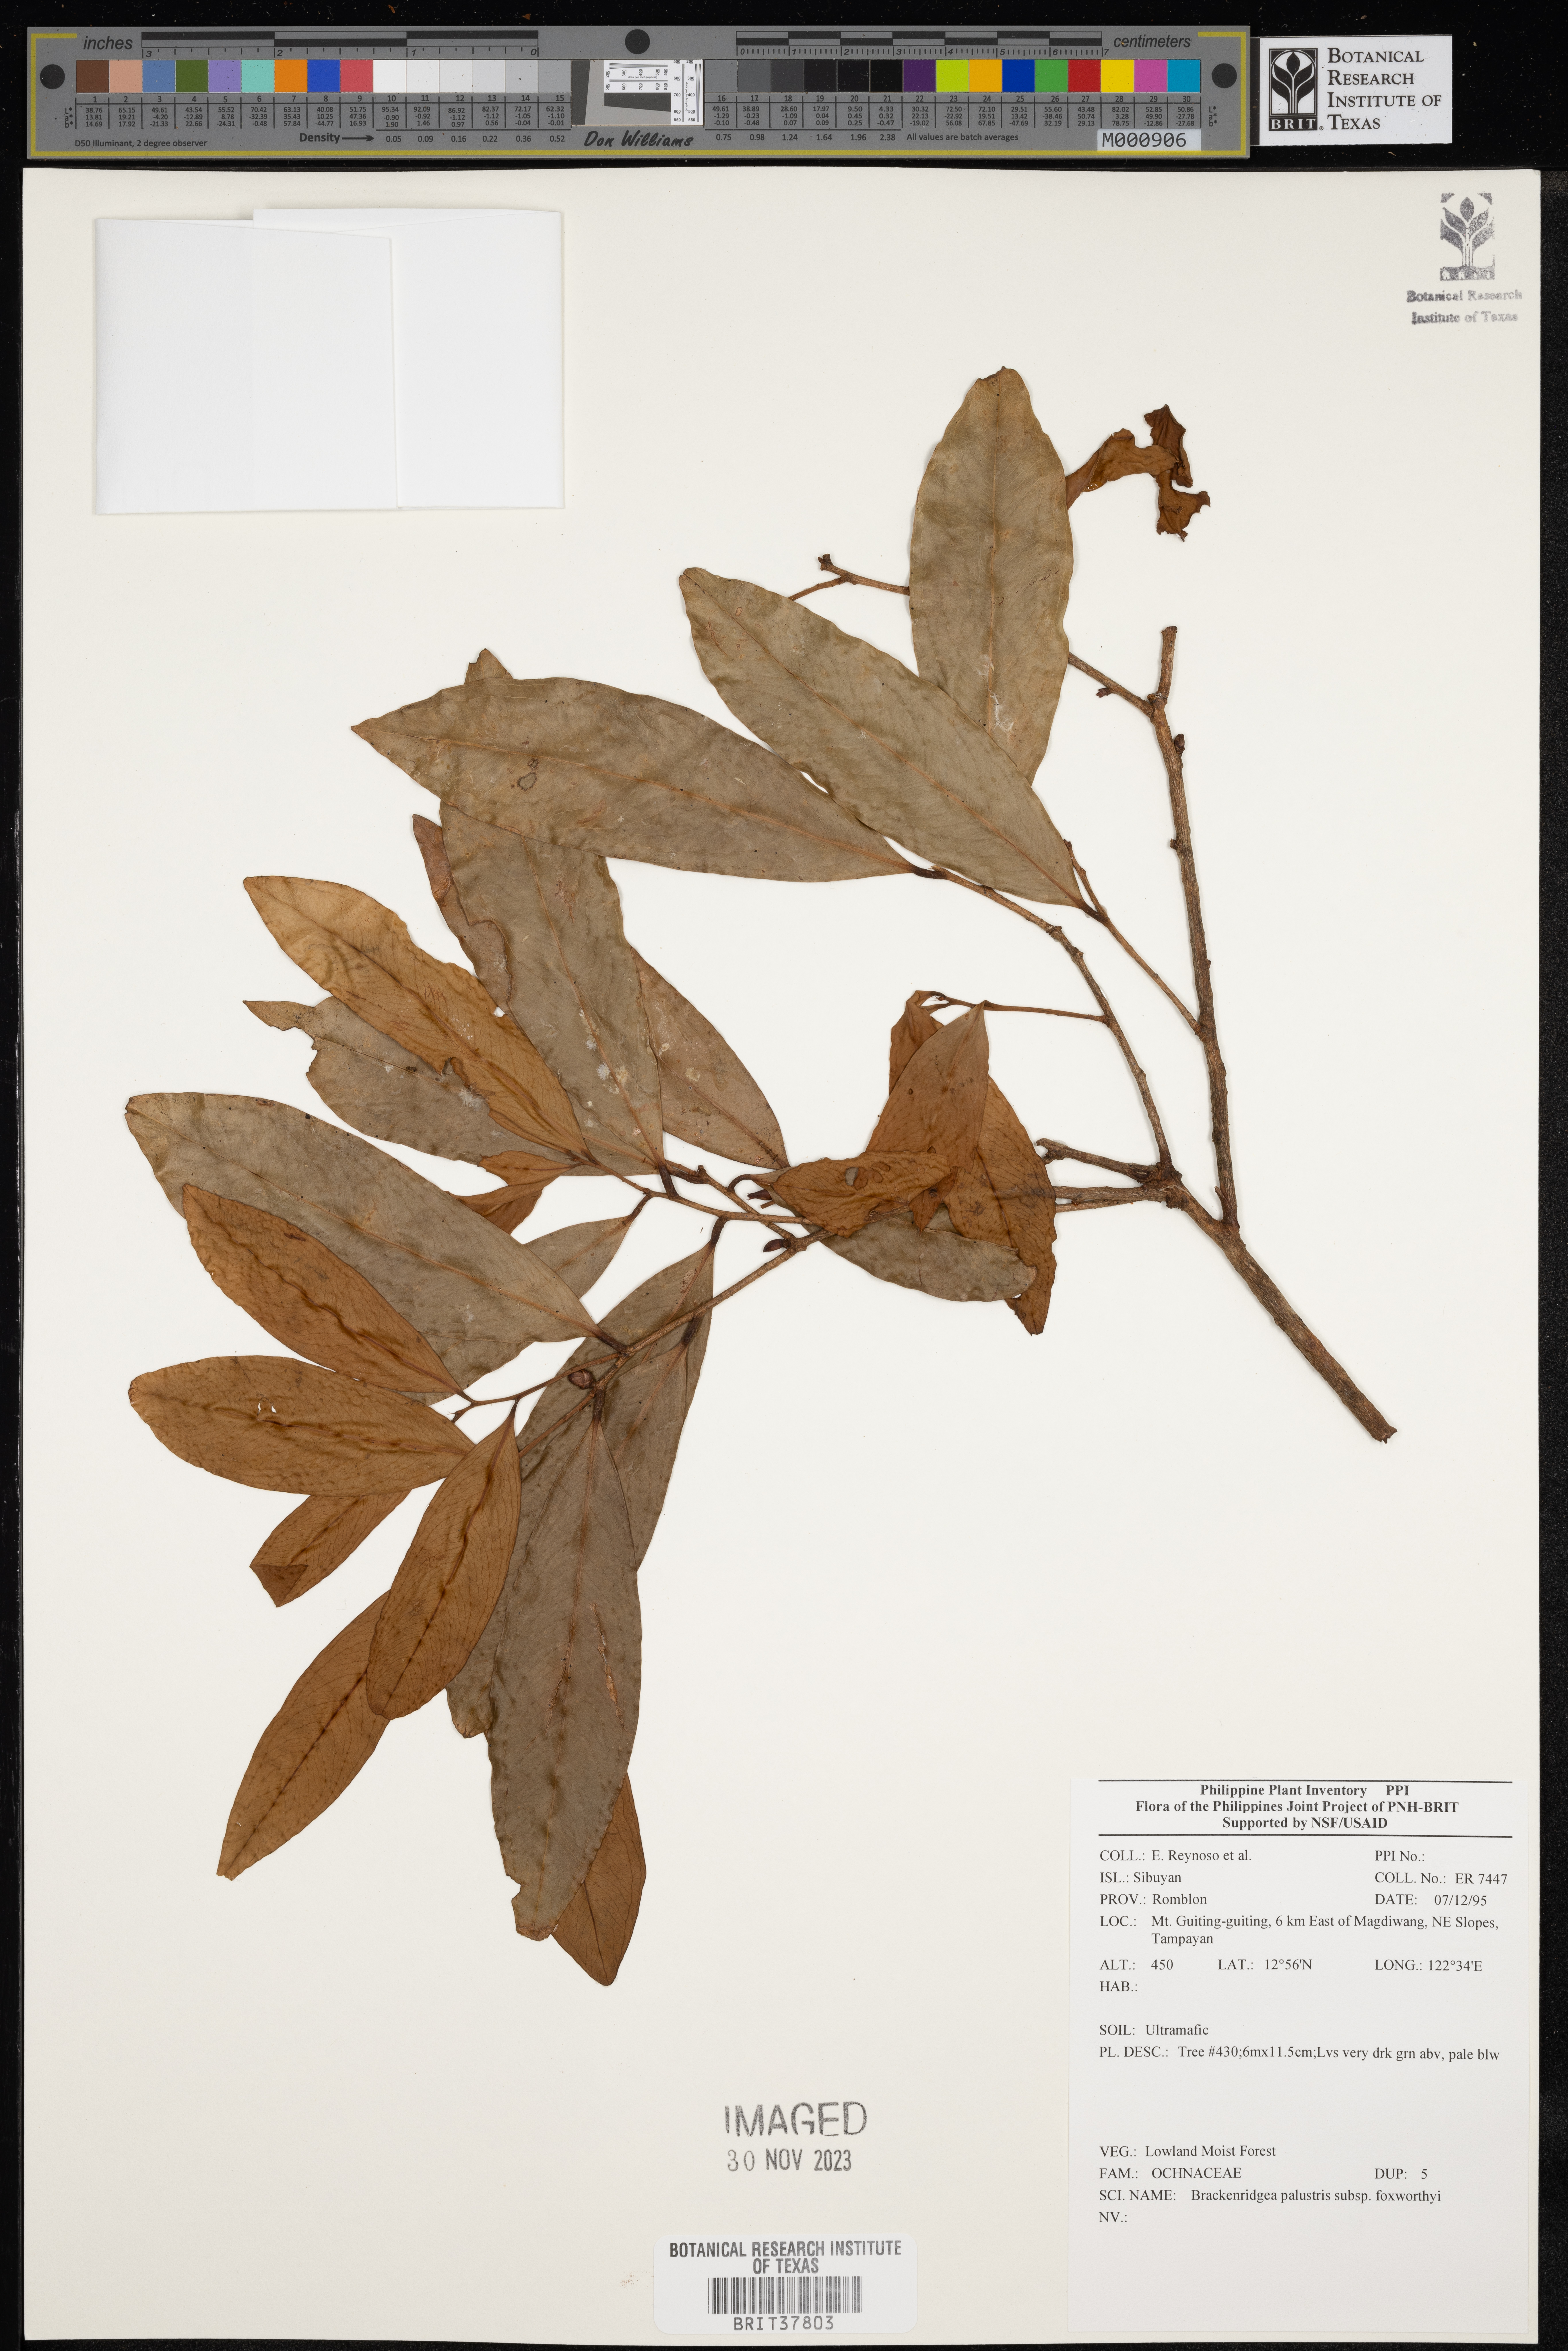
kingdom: Plantae
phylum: Tracheophyta
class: Magnoliopsida
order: Malpighiales
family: Ochnaceae
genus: Brackenridgea
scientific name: Brackenridgea
